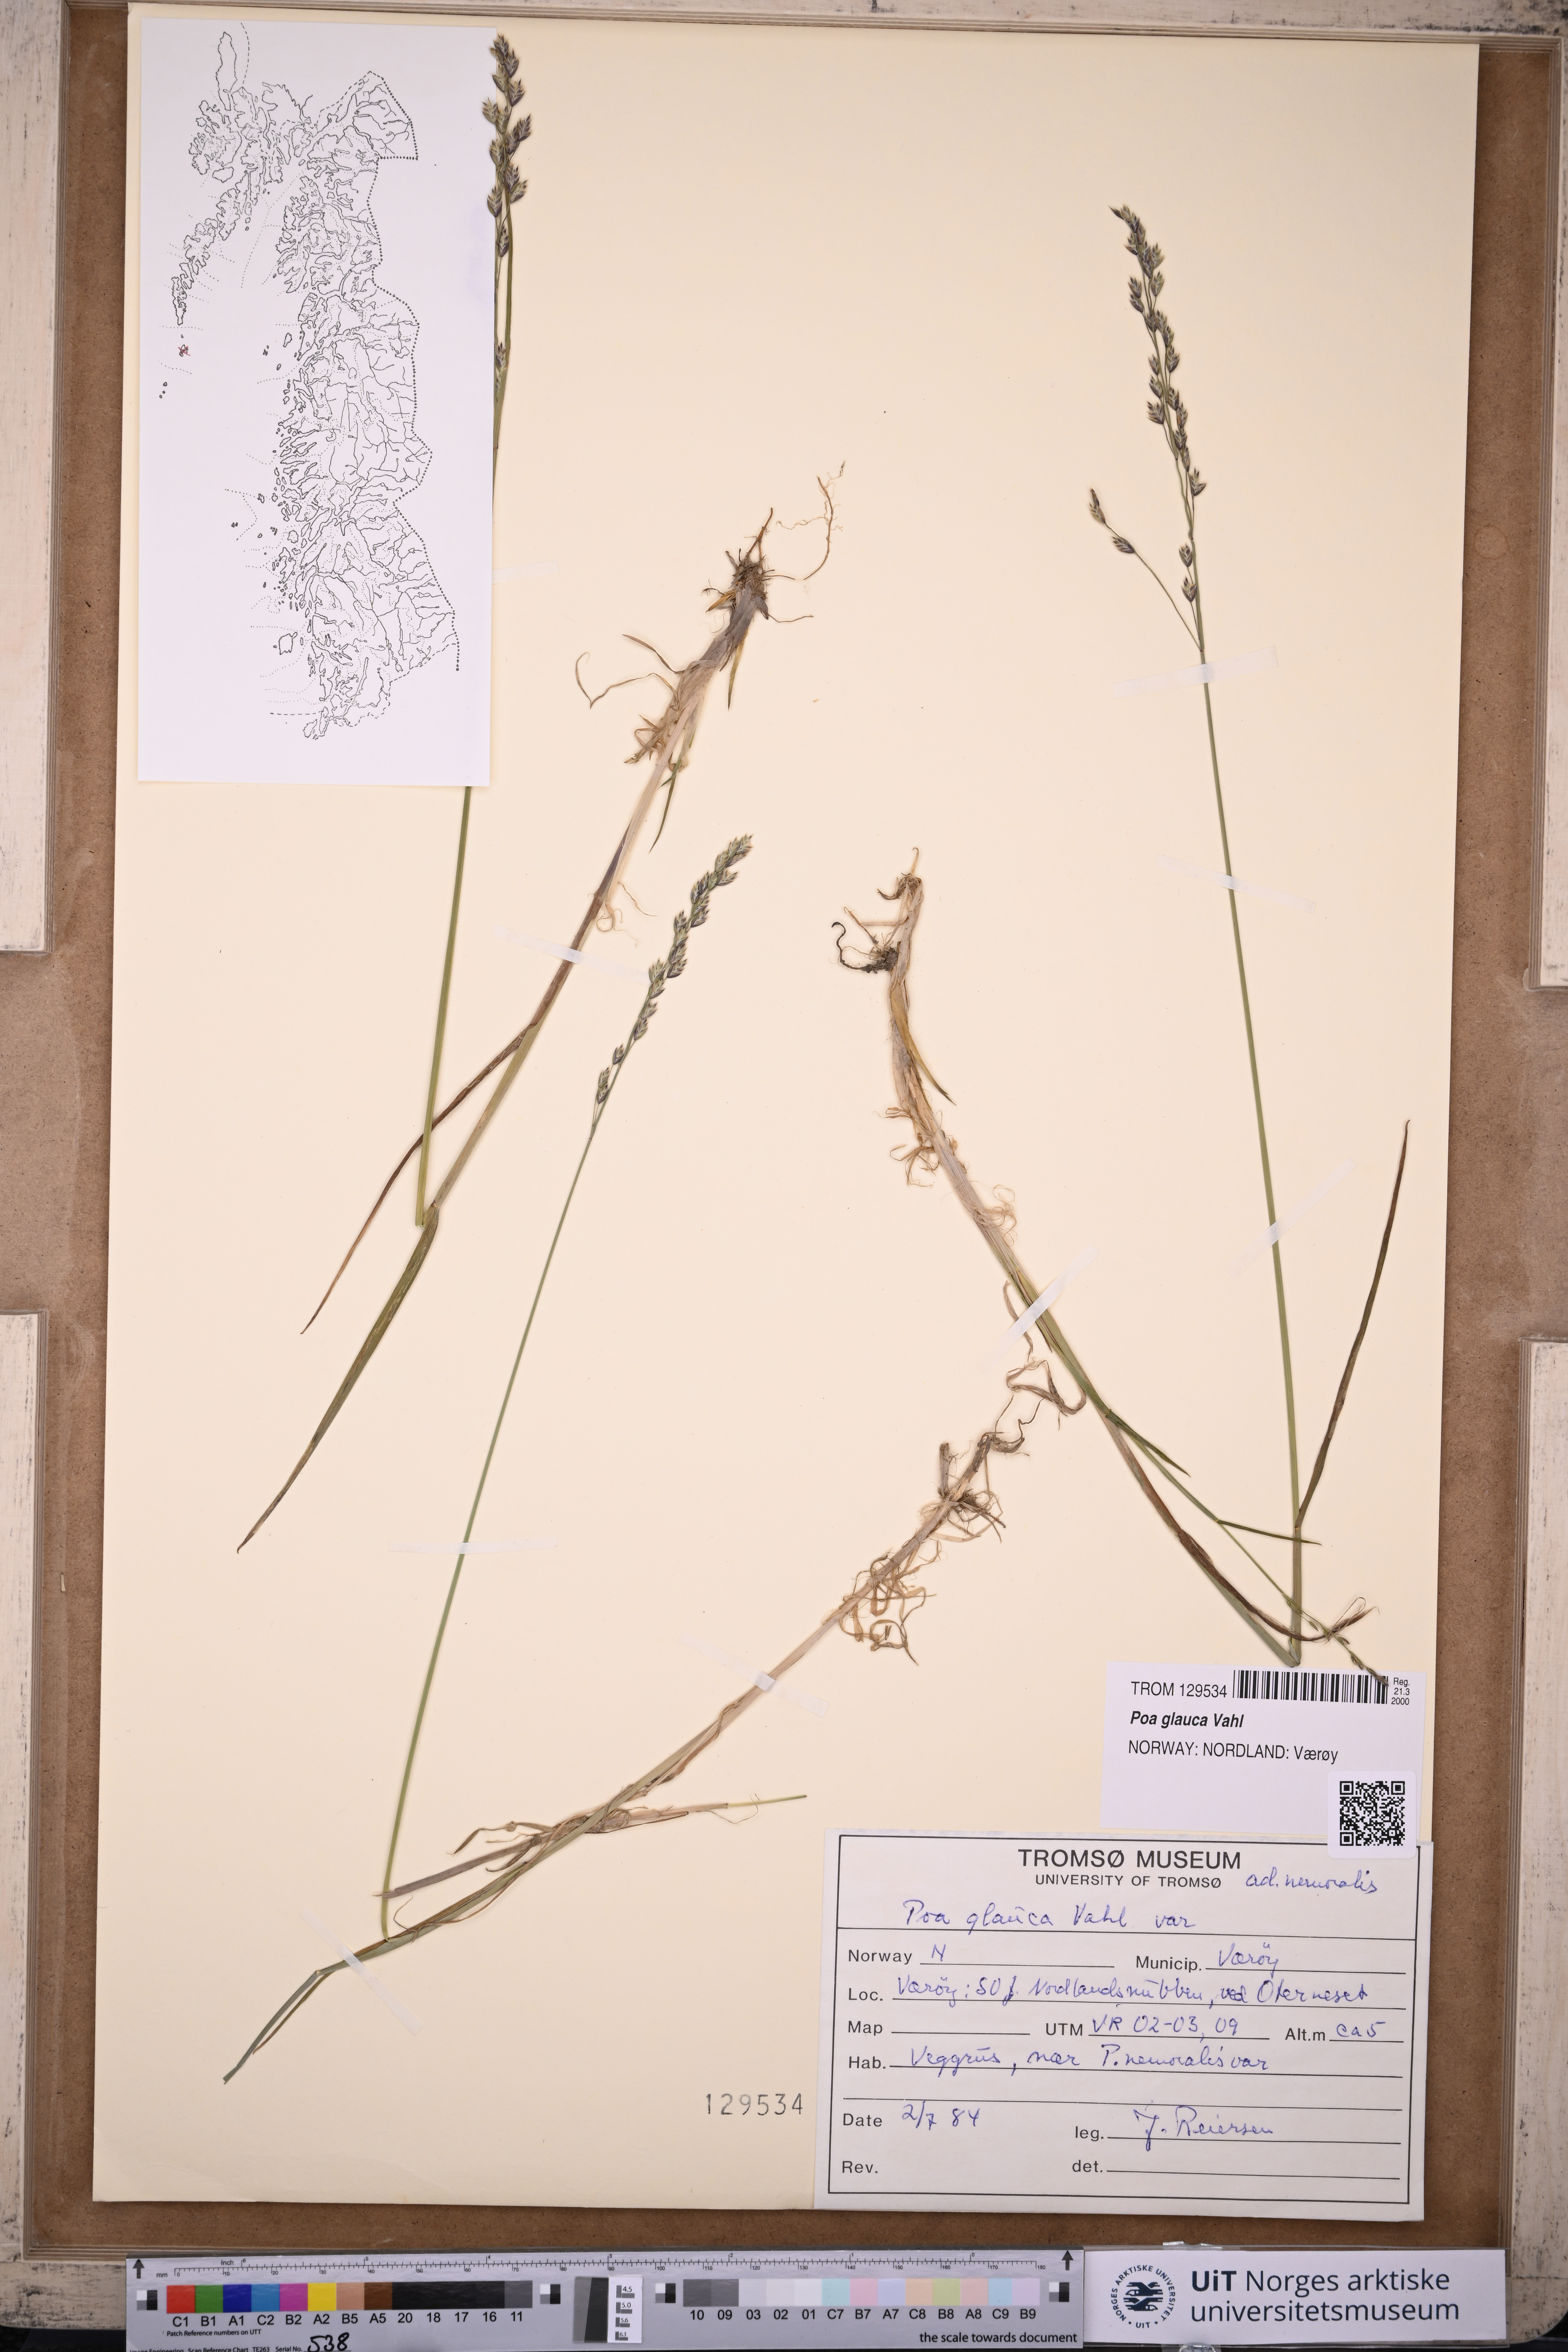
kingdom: Plantae
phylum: Tracheophyta
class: Liliopsida
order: Poales
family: Poaceae
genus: Poa
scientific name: Poa glauca
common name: Glaucous bluegrass
